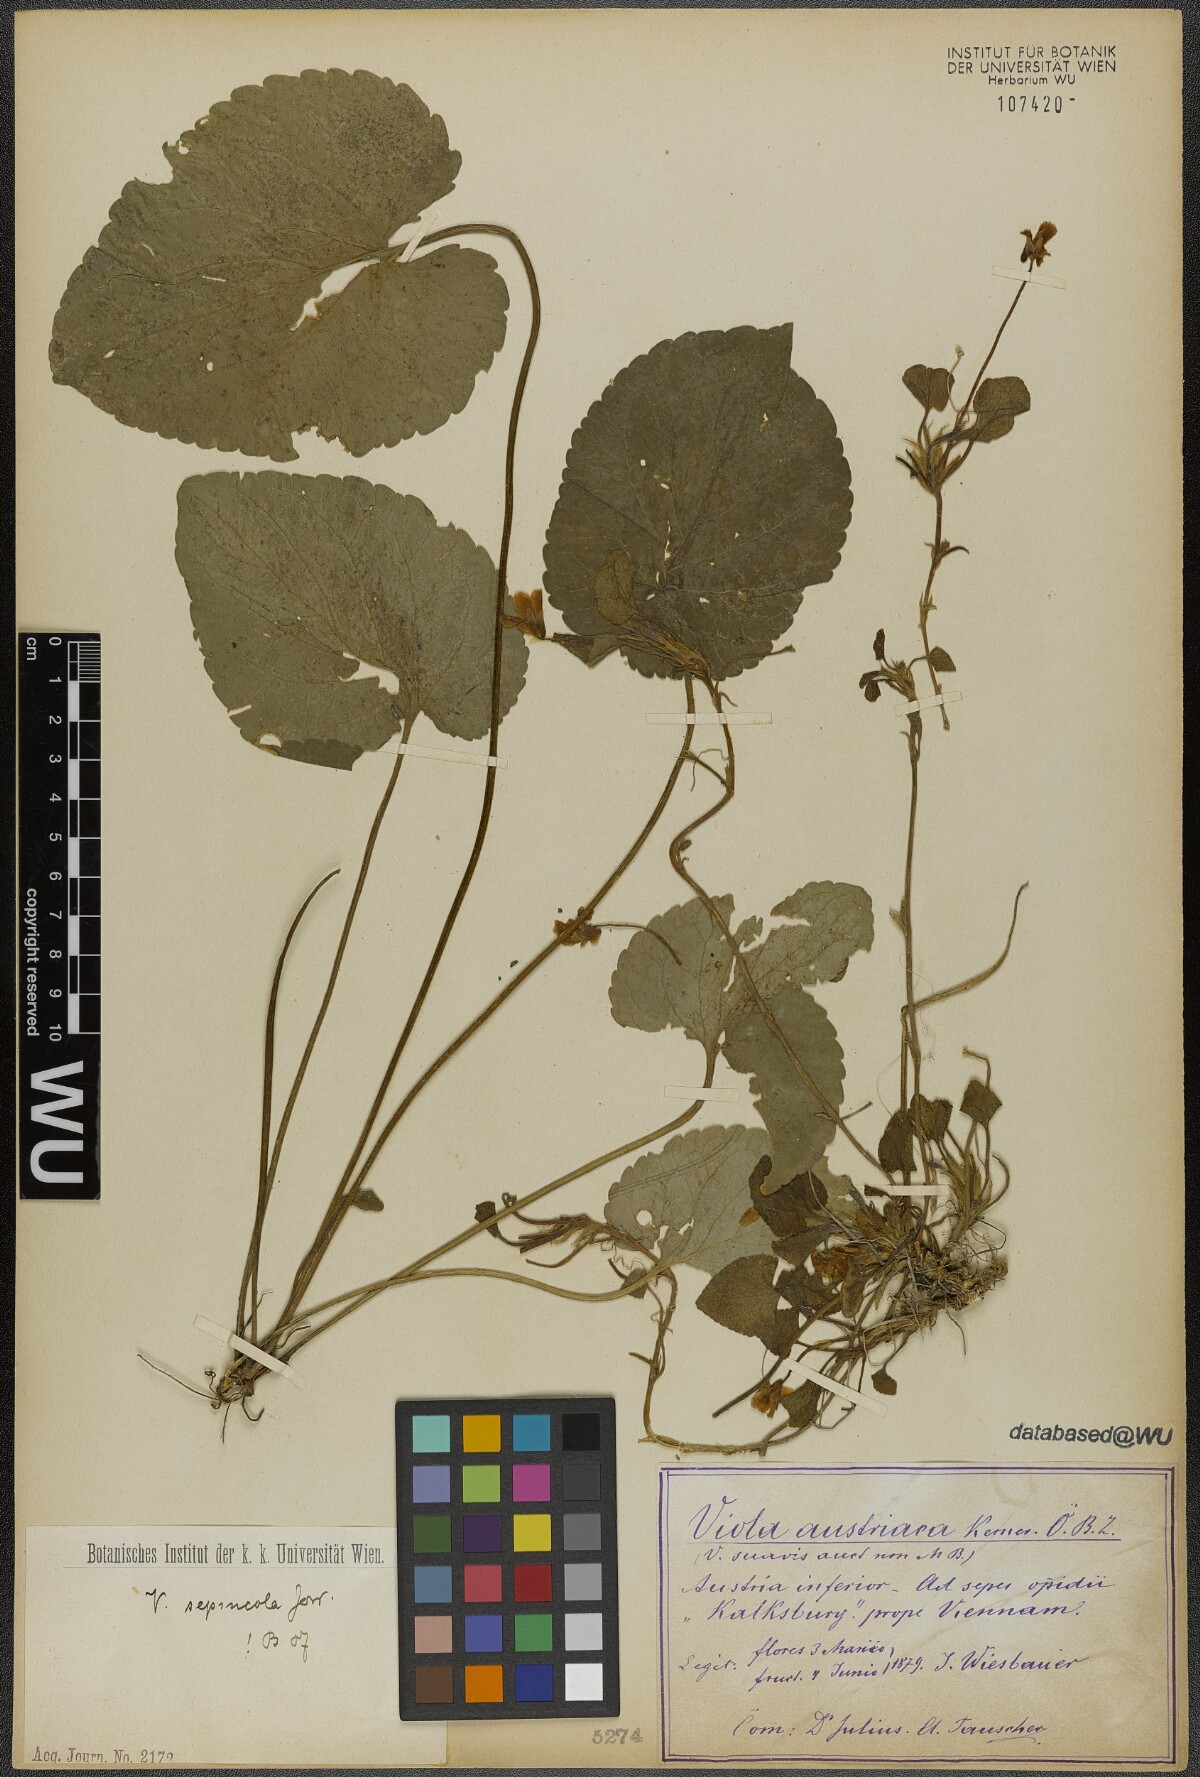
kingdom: Plantae
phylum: Tracheophyta
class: Magnoliopsida
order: Malpighiales
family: Violaceae
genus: Viola
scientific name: Viola suavis
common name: Russian violet
